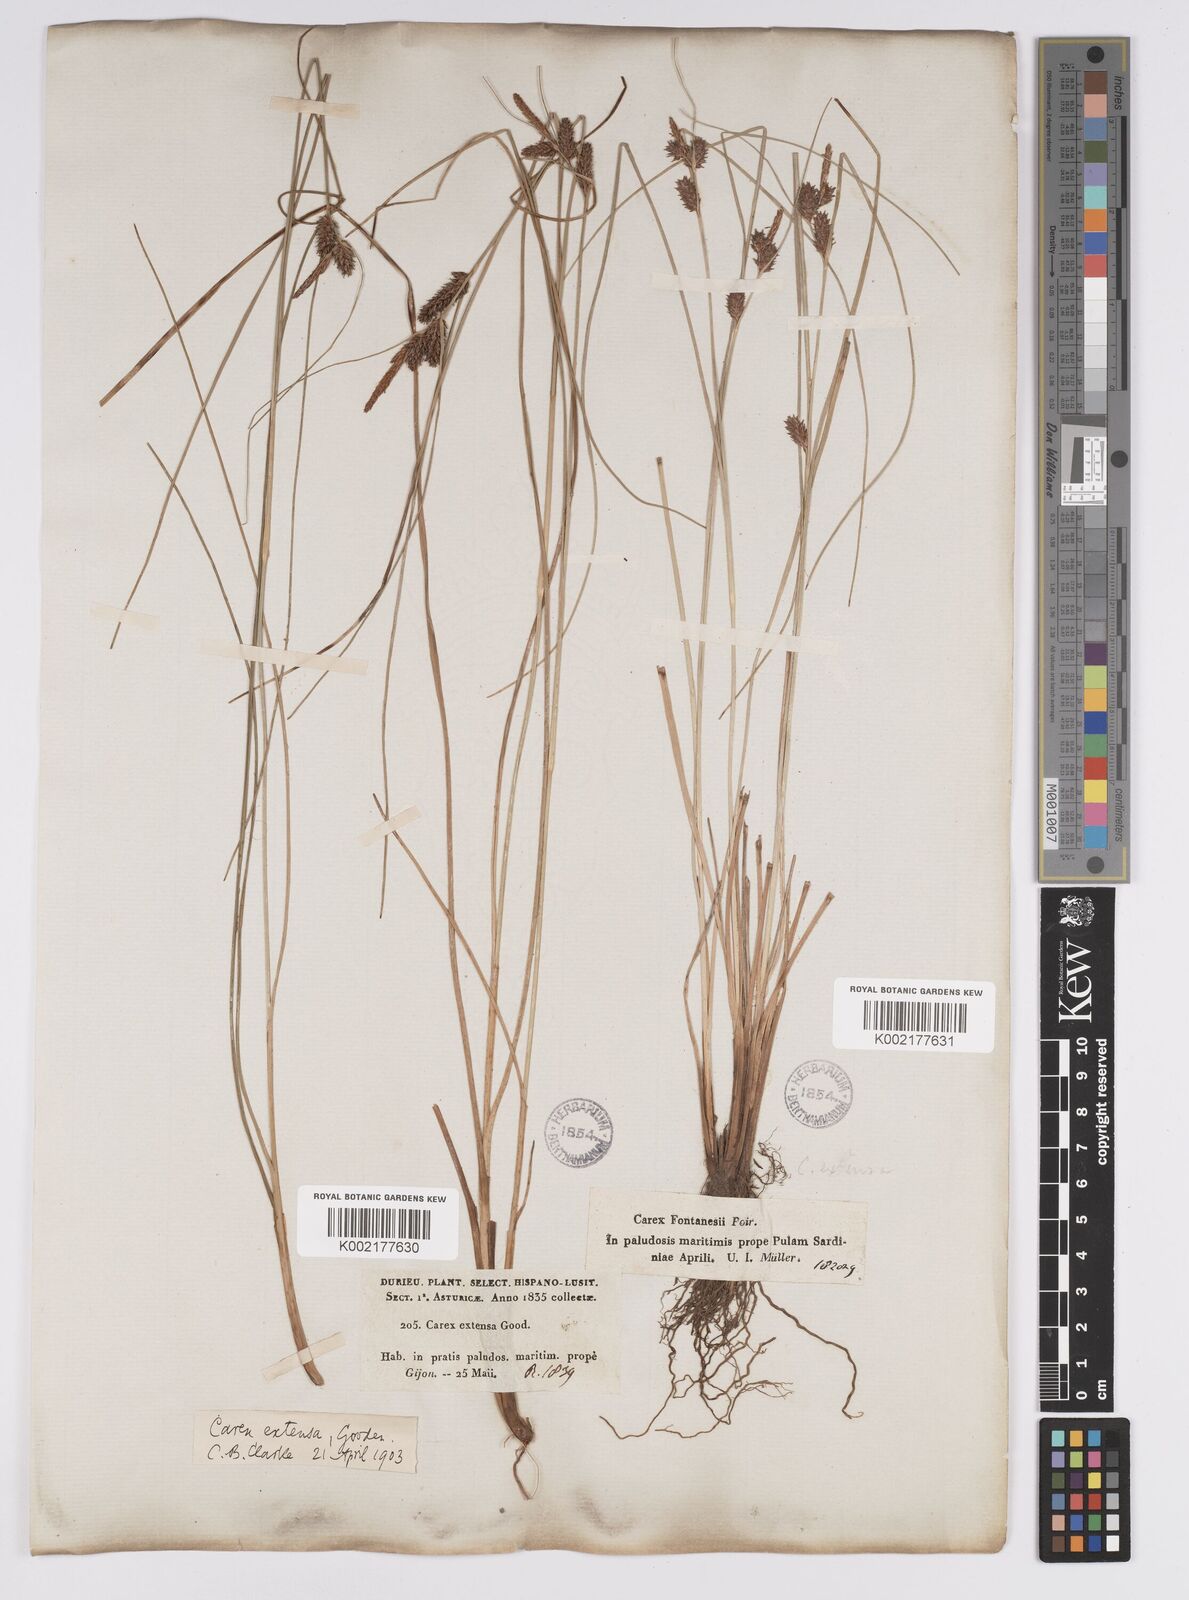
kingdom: Plantae
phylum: Tracheophyta
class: Liliopsida
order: Poales
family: Cyperaceae
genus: Carex
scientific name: Carex extensa
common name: Long-bracted sedge
